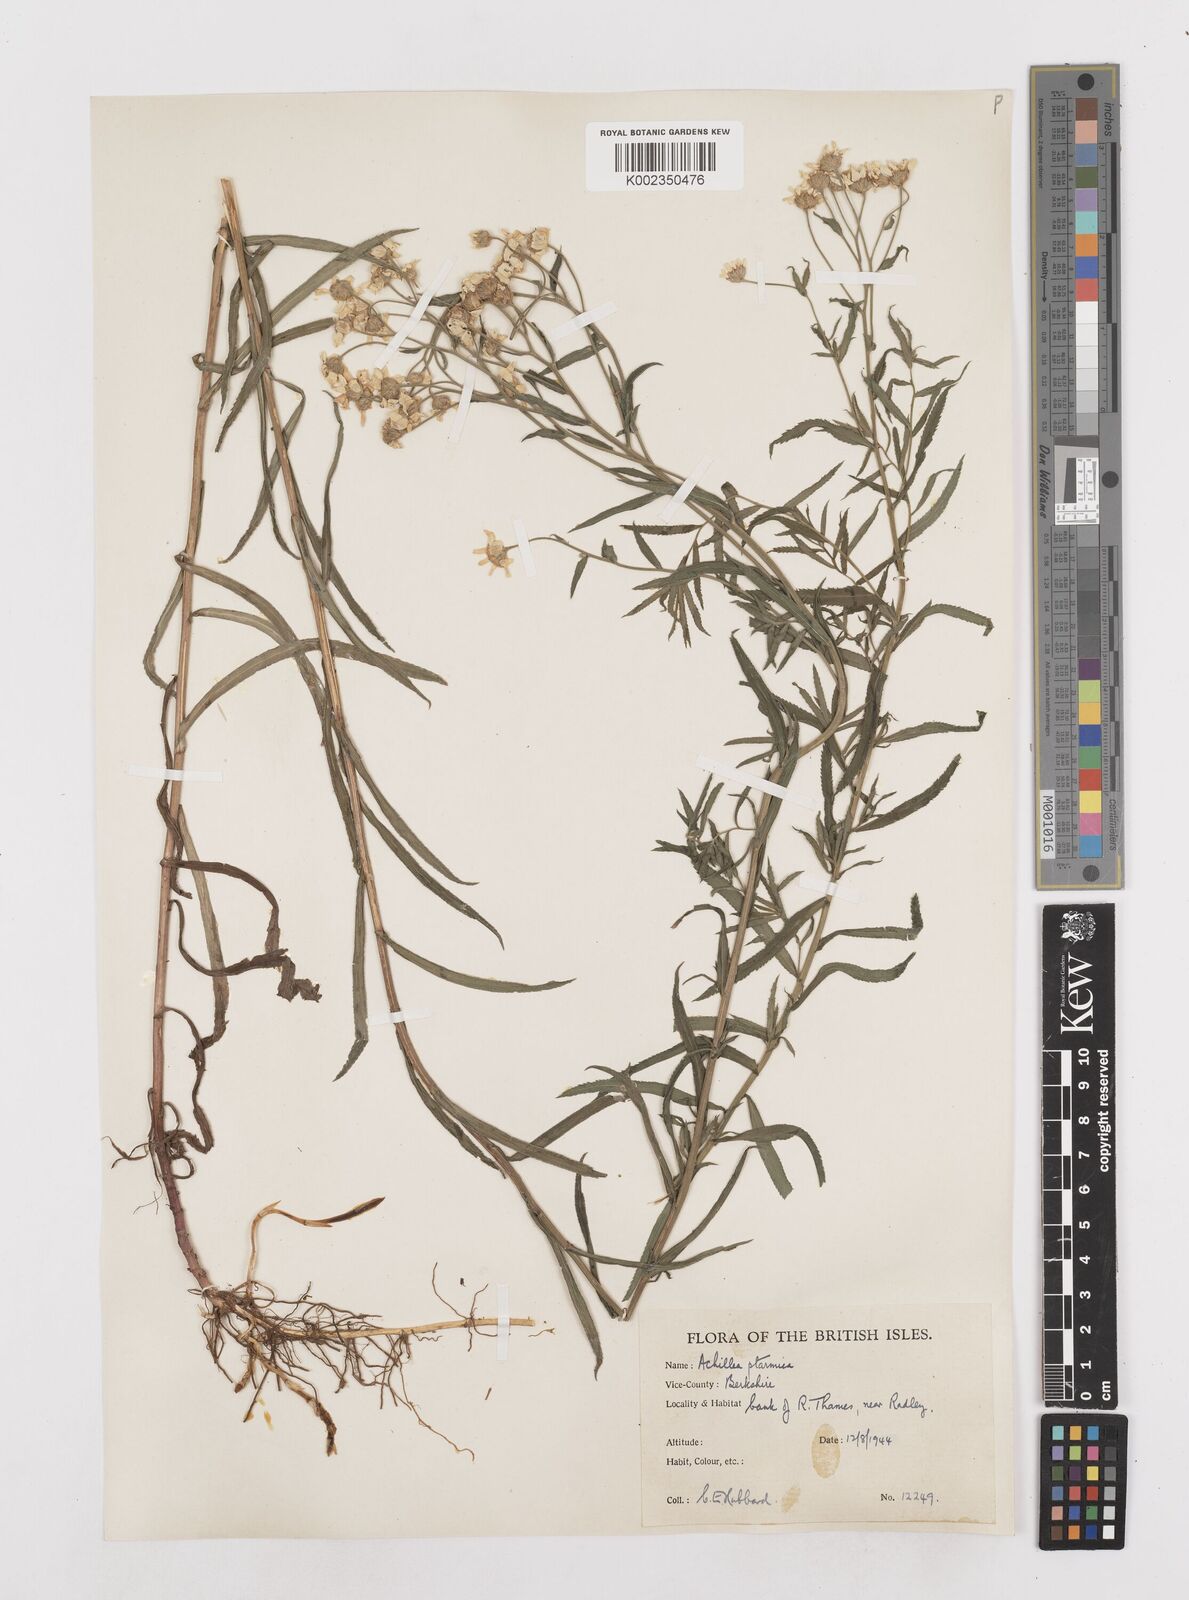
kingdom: Plantae
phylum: Tracheophyta
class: Magnoliopsida
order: Asterales
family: Asteraceae
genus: Achillea
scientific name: Achillea ptarmica
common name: Sneezeweed
